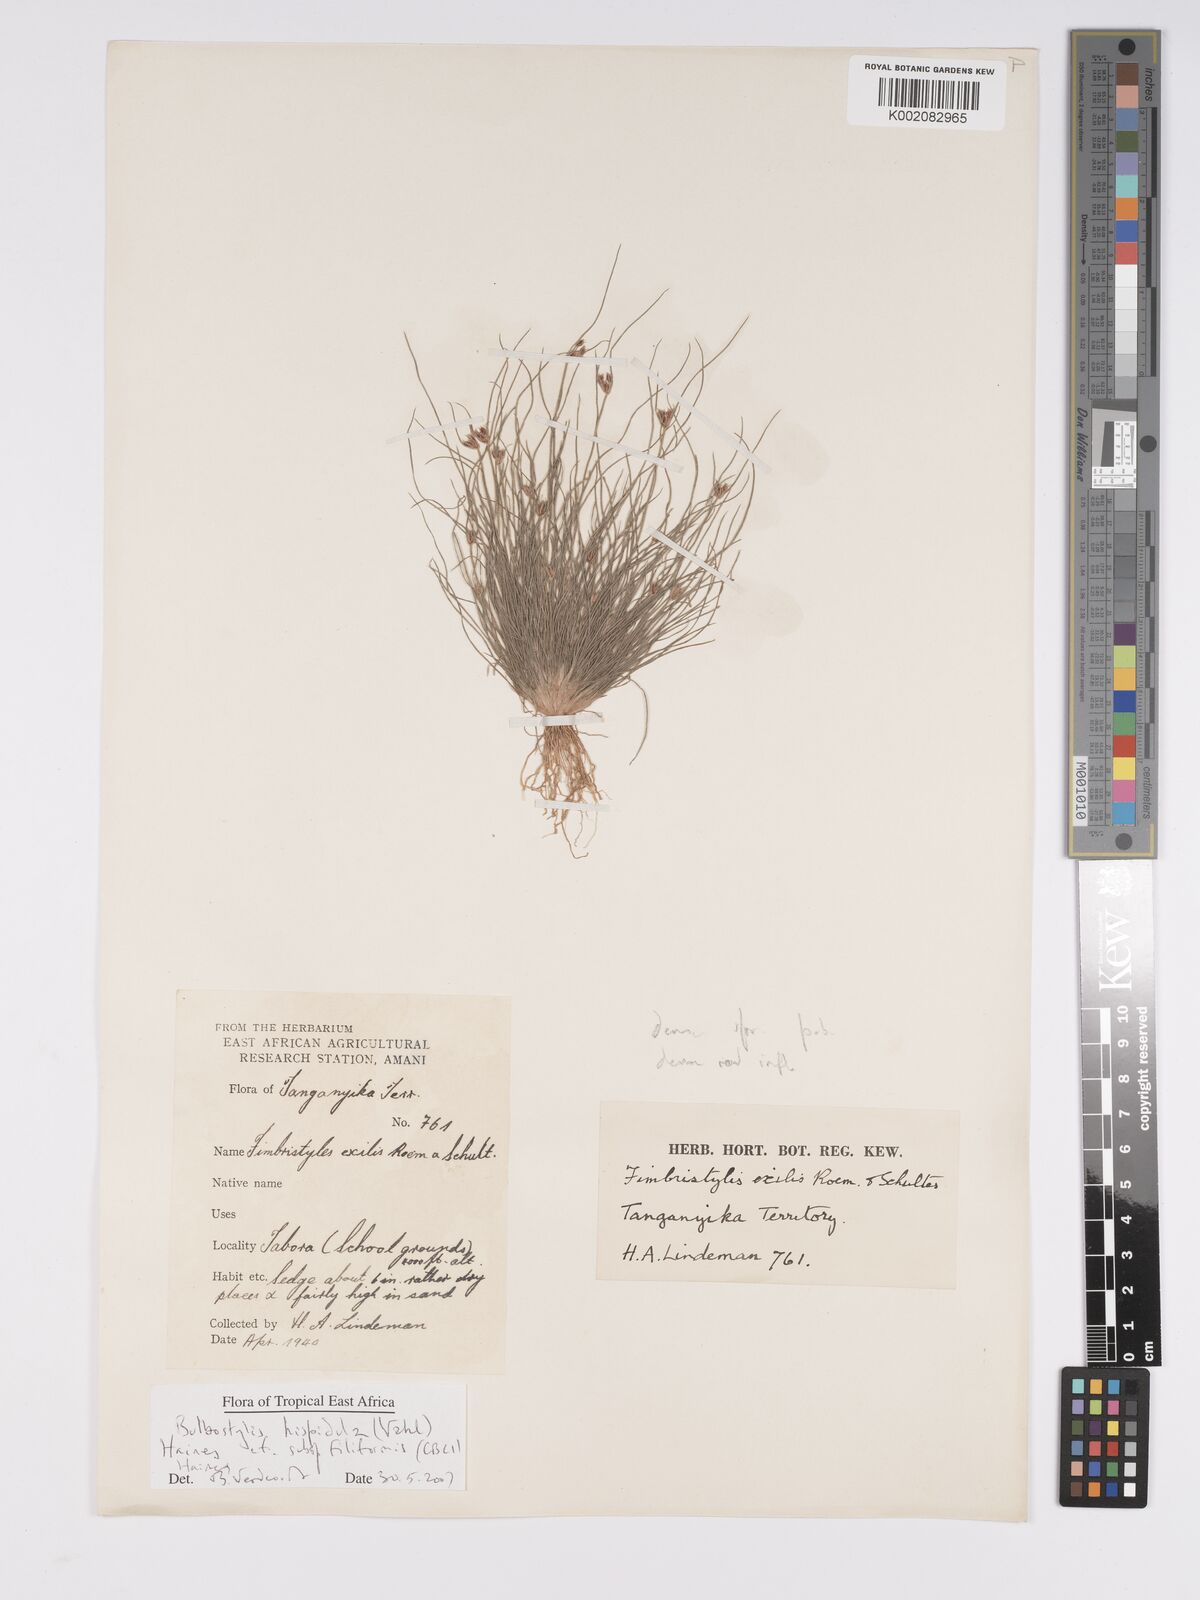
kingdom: Plantae
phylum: Tracheophyta
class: Liliopsida
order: Poales
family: Cyperaceae
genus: Bulbostylis
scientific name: Bulbostylis hispidula
